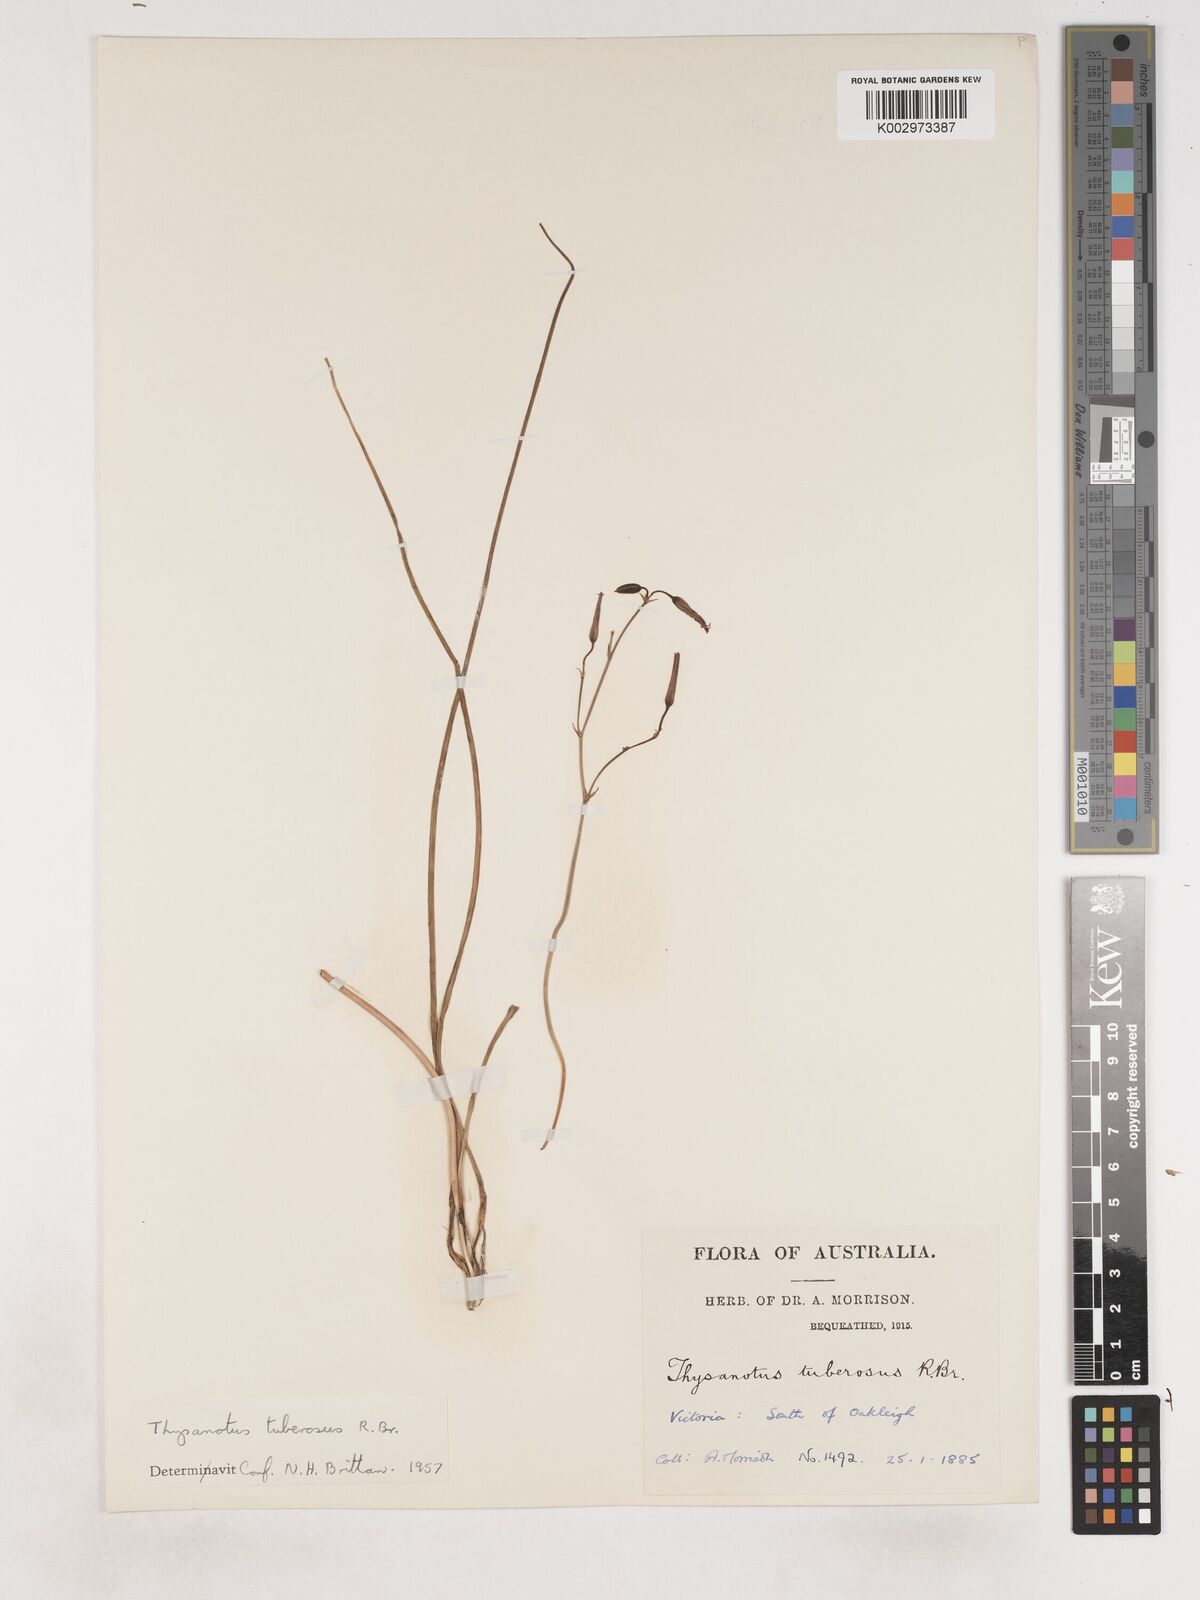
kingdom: Plantae
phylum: Tracheophyta
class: Liliopsida
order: Asparagales
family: Asparagaceae
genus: Thysanotus
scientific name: Thysanotus tuberosus
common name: Common fringed-lily
